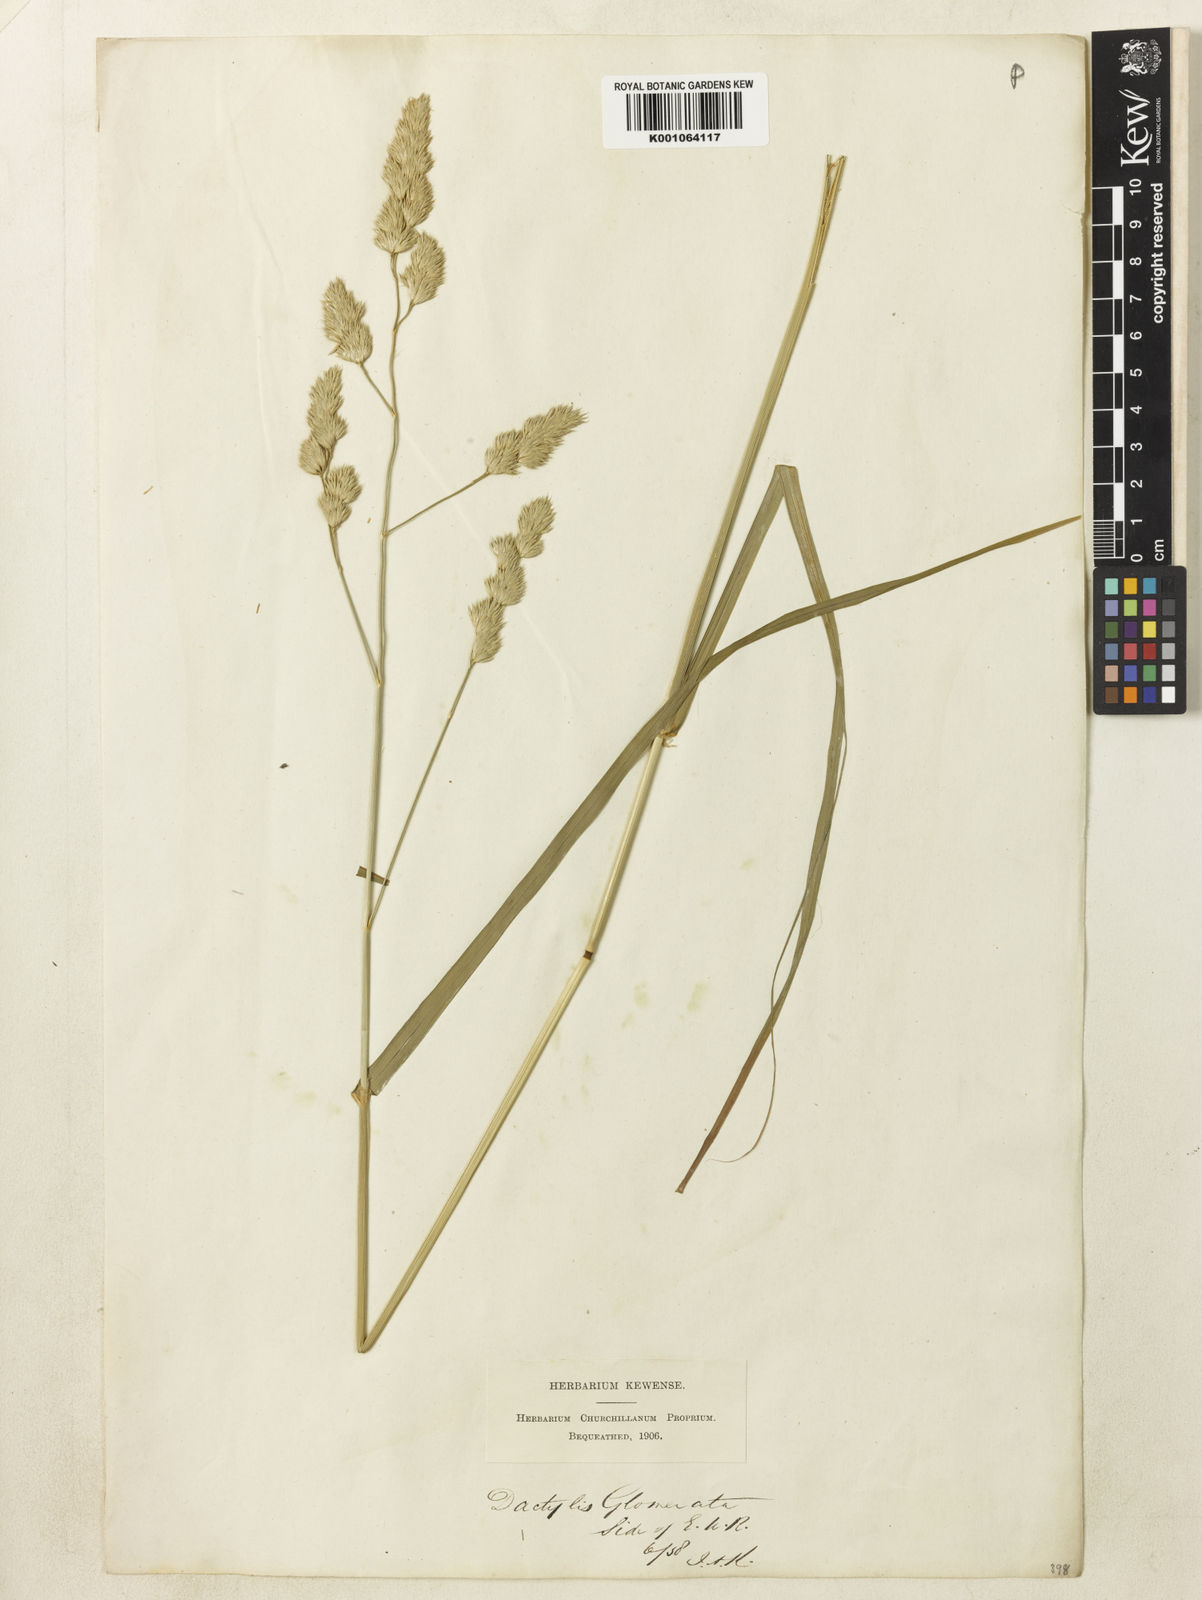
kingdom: Plantae
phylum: Tracheophyta
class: Liliopsida
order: Poales
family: Poaceae
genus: Dactylis
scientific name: Dactylis glomerata
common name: Orchardgrass
